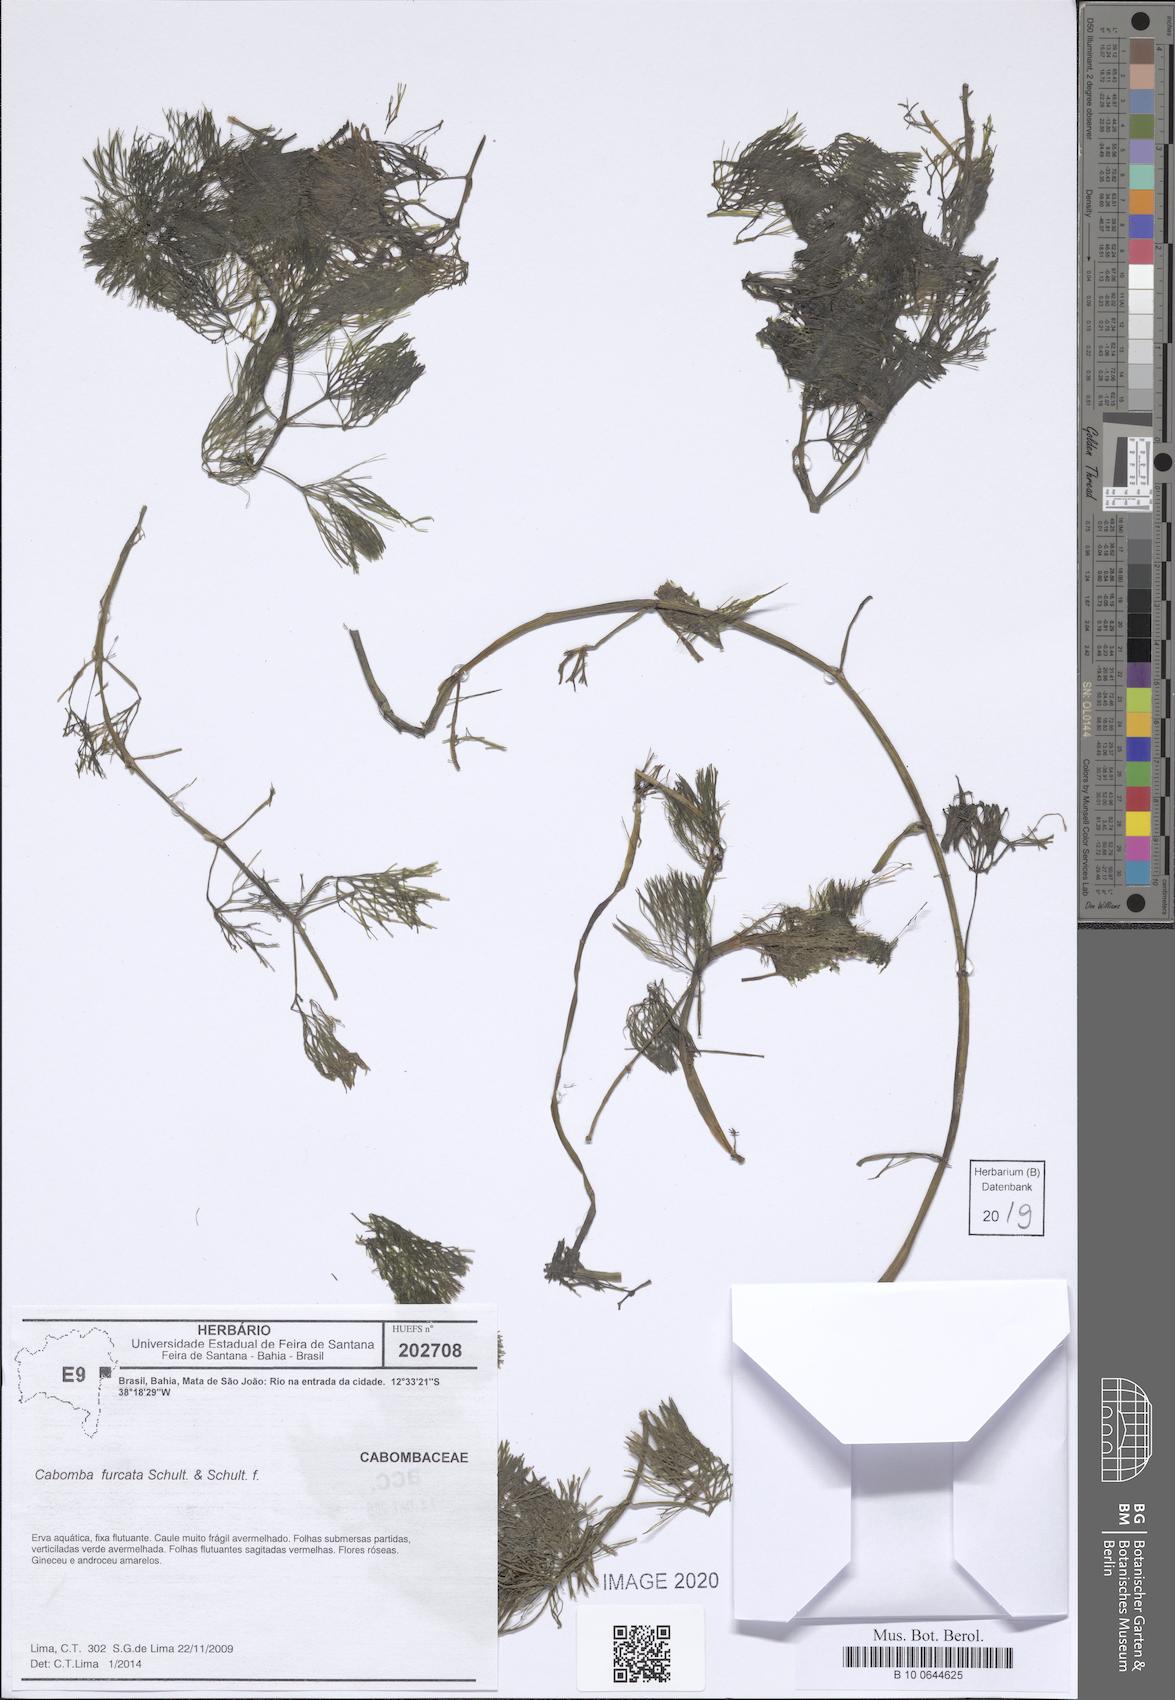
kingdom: Plantae
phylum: Tracheophyta
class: Magnoliopsida
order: Nymphaeales
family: Cabombaceae
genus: Cabomba
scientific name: Cabomba furcata
